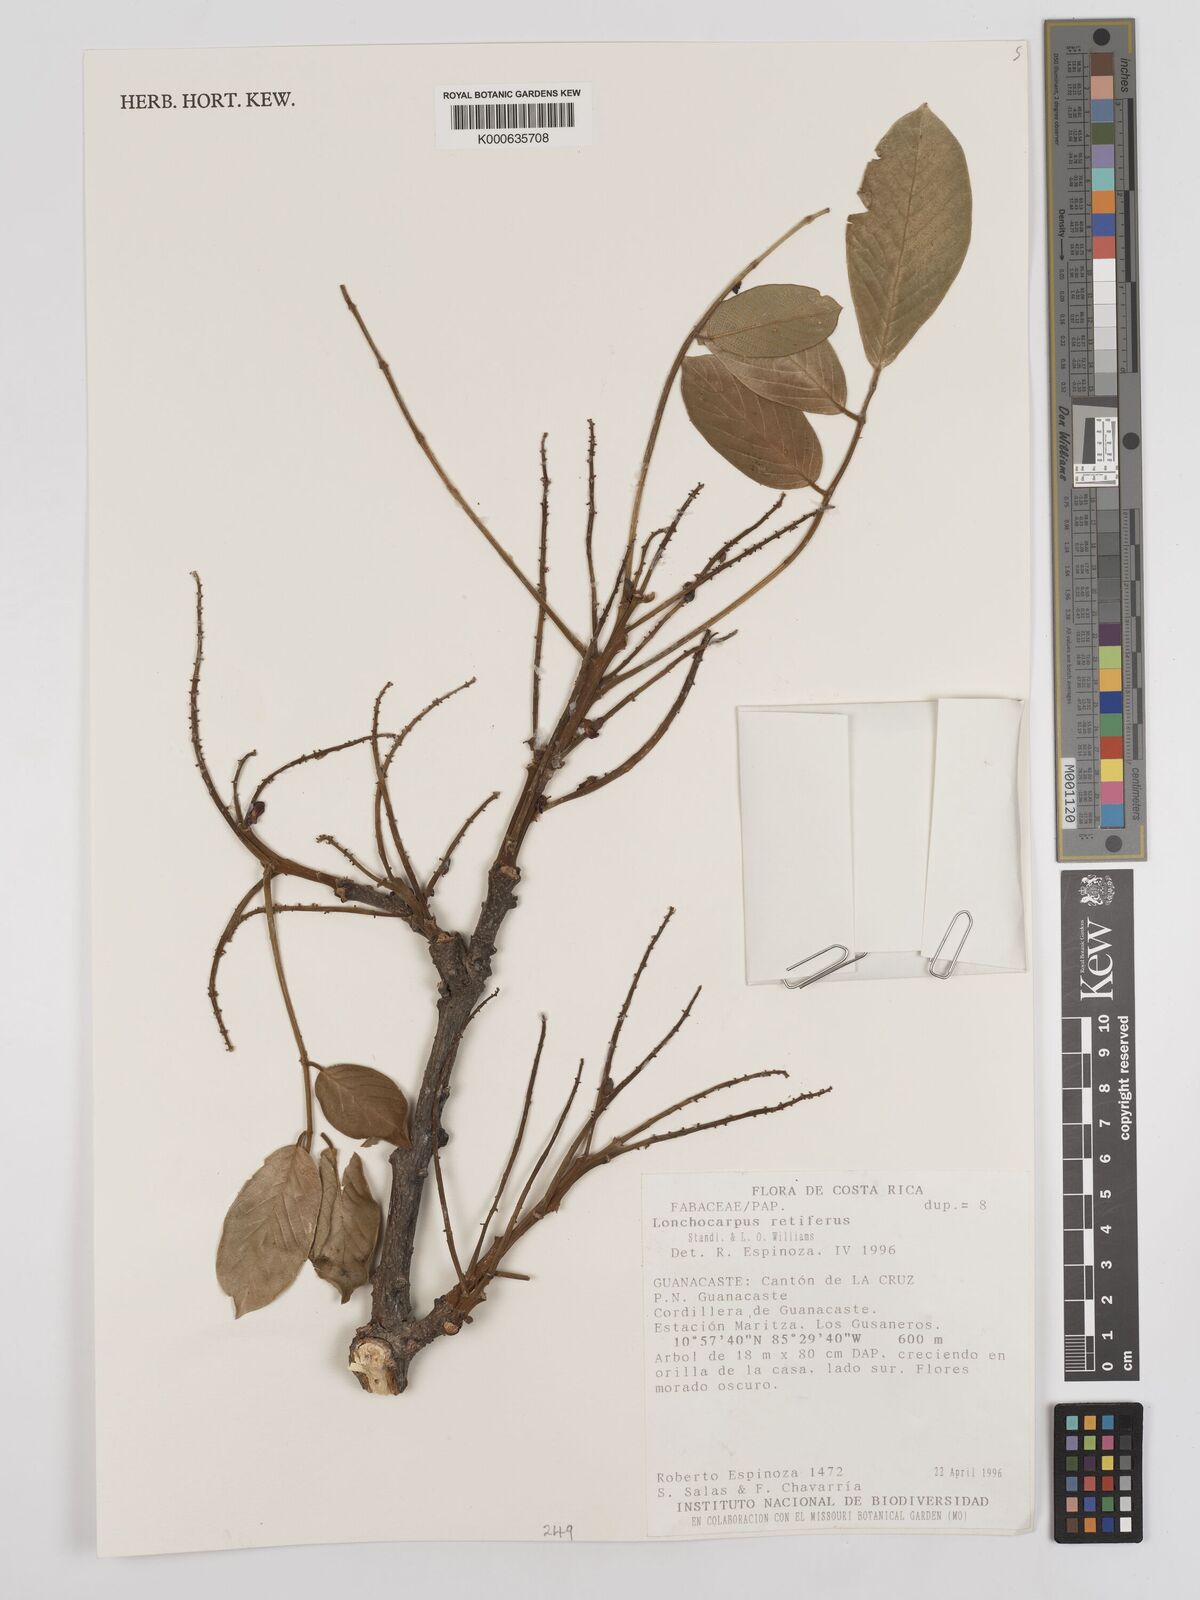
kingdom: Plantae
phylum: Tracheophyta
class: Magnoliopsida
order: Fabales
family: Fabaceae
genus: Lonchocarpus
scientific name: Lonchocarpus
